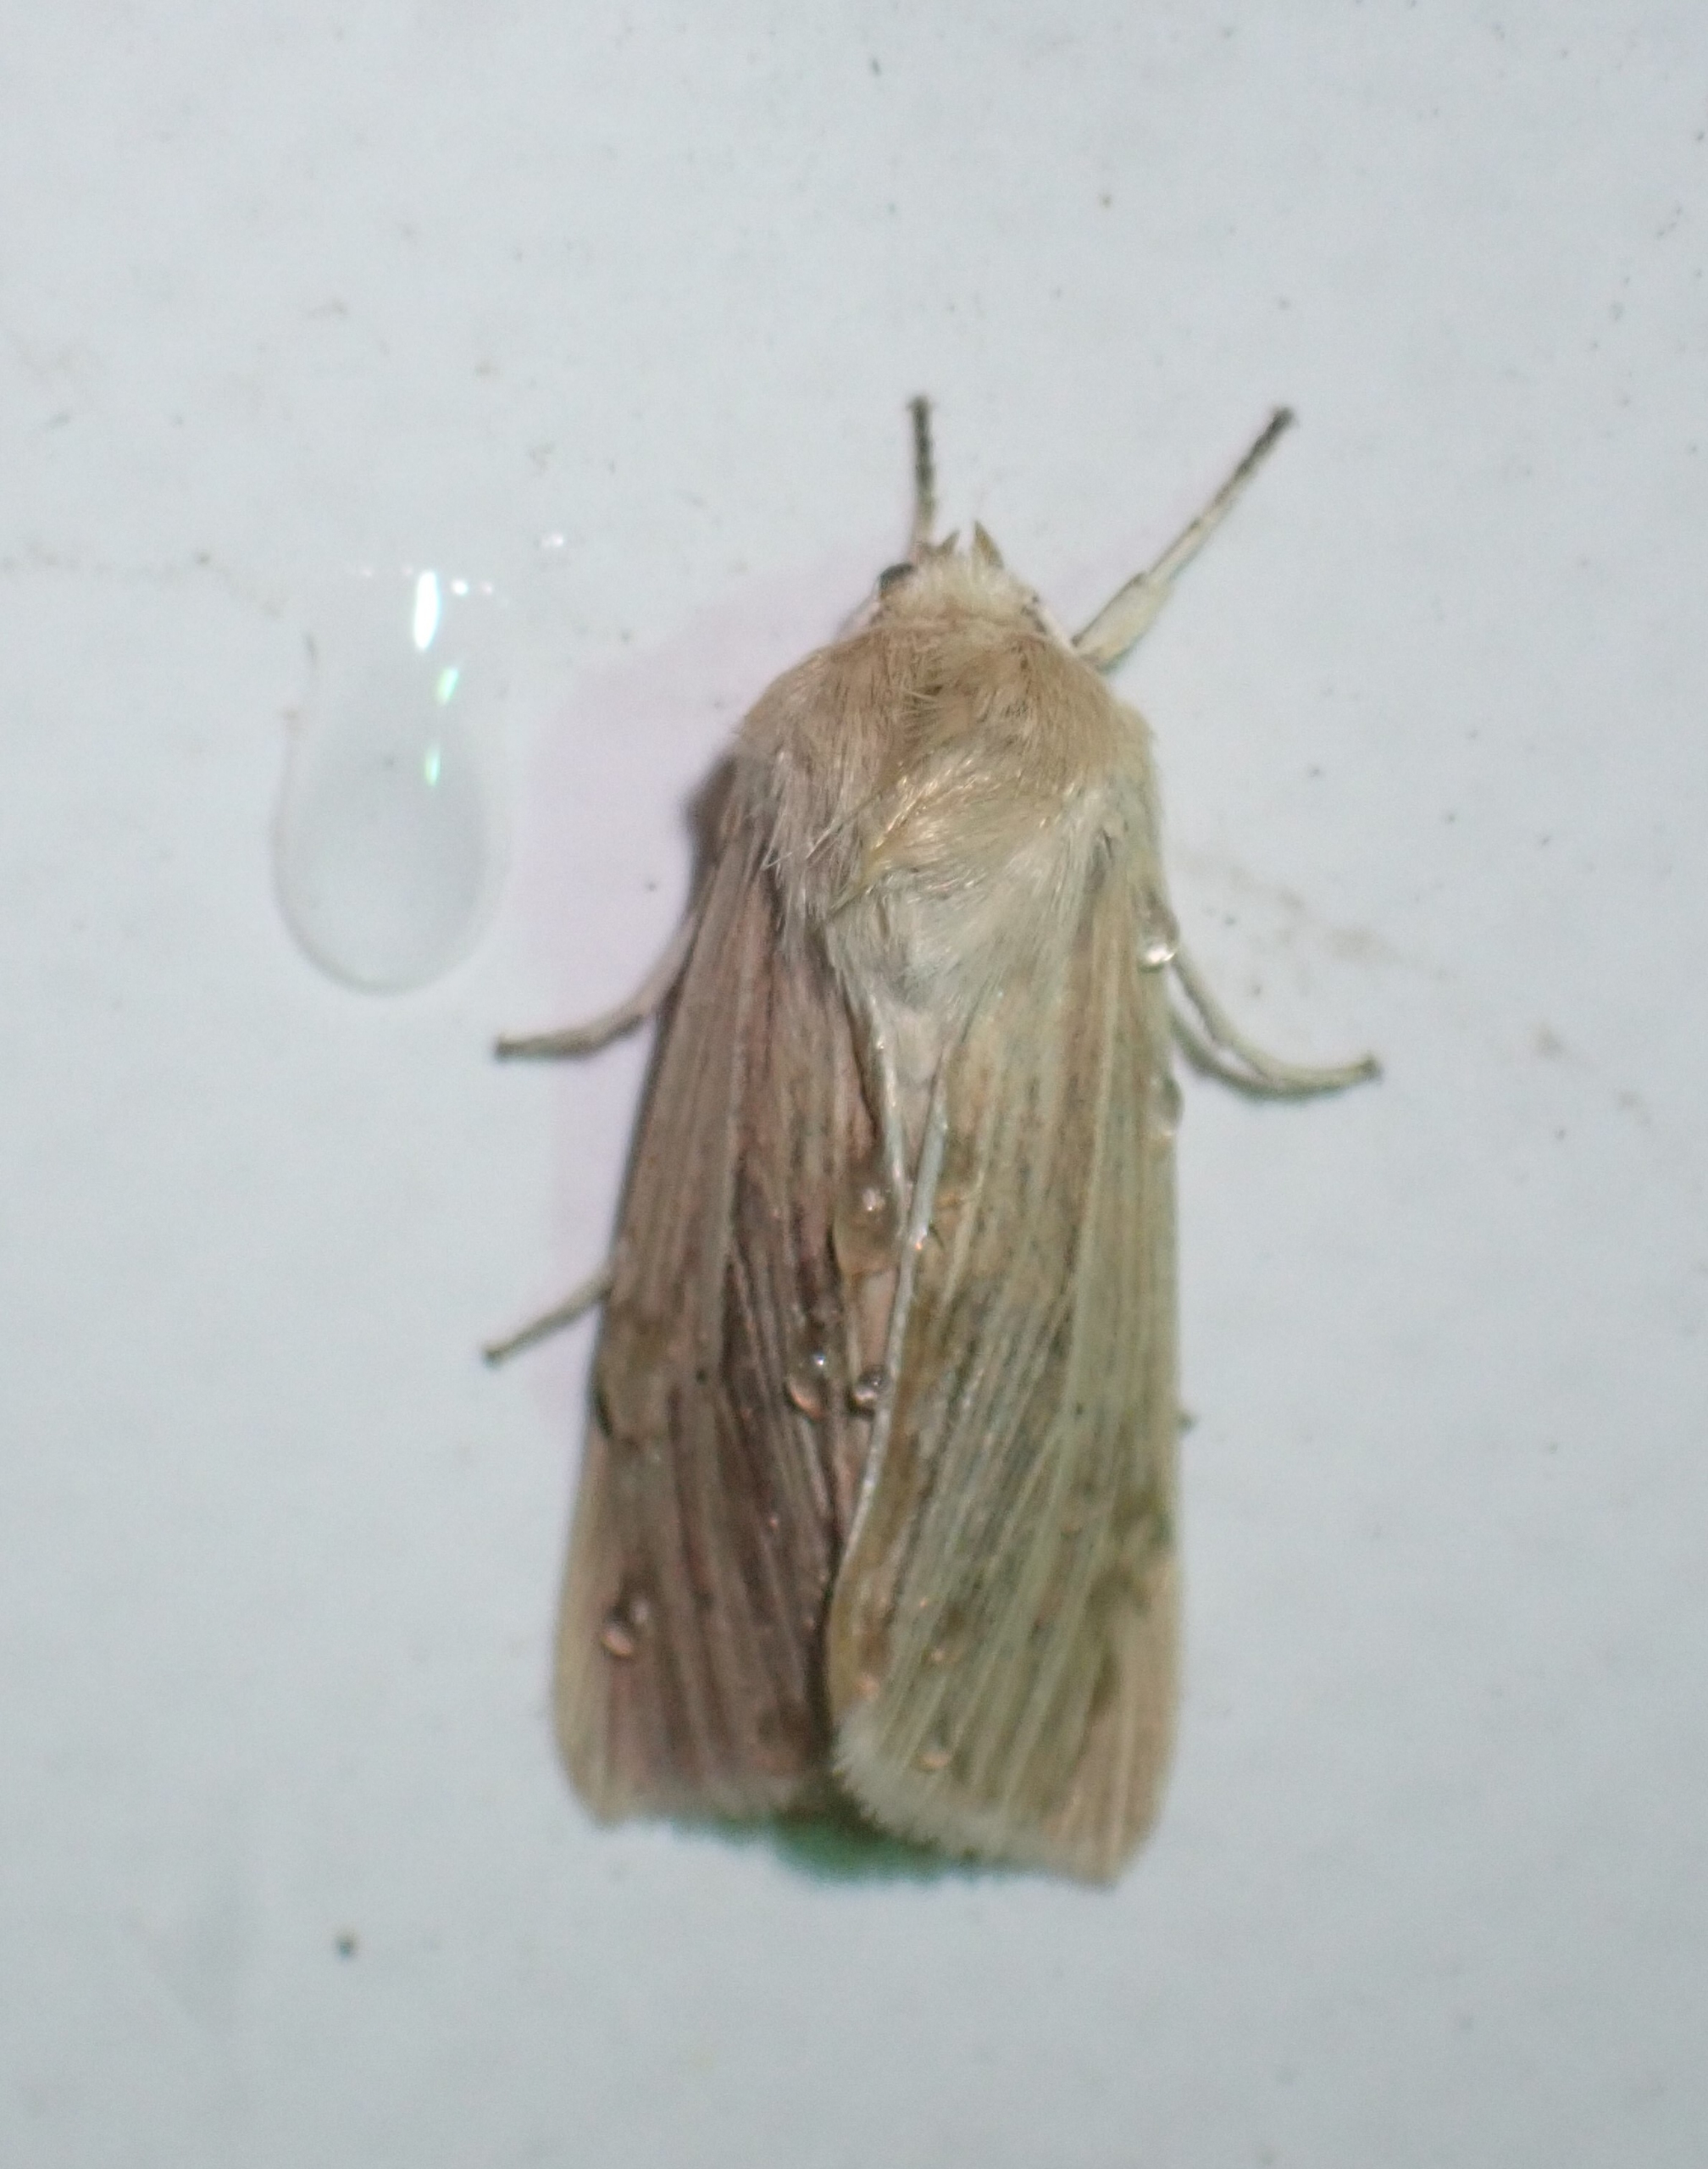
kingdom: Animalia
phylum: Arthropoda
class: Insecta
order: Lepidoptera
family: Noctuidae
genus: Mythimna
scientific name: Mythimna pallens
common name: Halmugle
